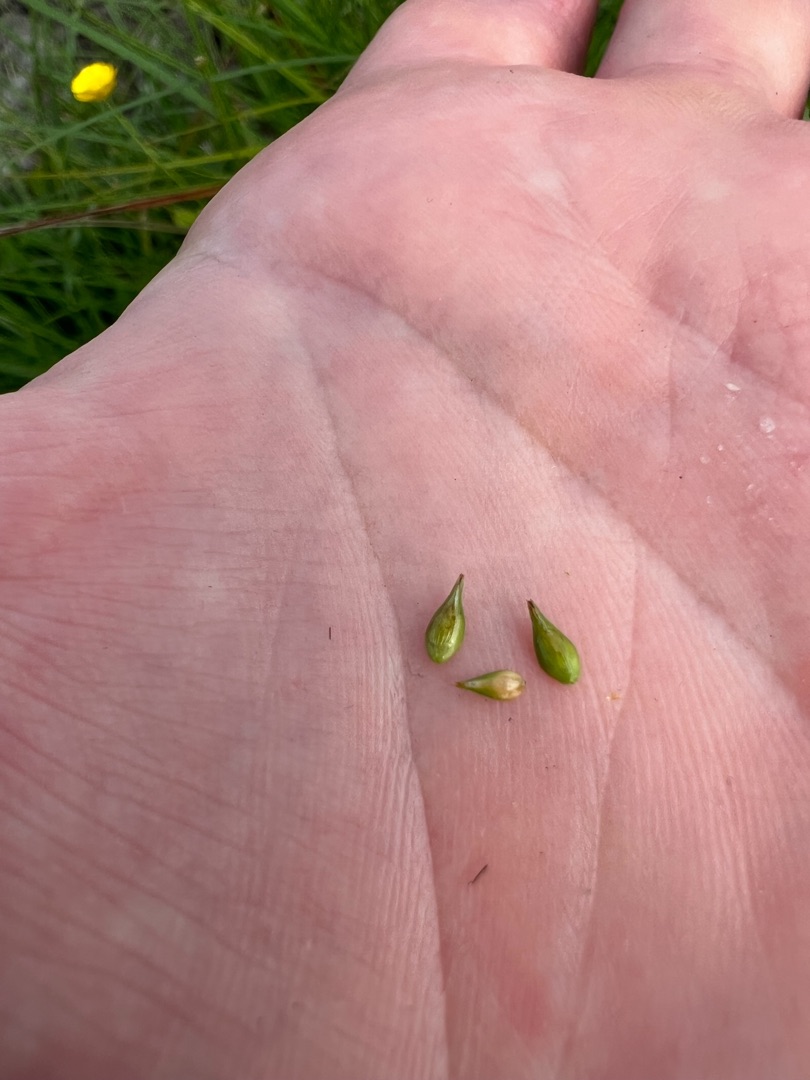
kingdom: Plantae
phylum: Tracheophyta
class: Liliopsida
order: Poales
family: Cyperaceae
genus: Carex
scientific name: Carex leersii
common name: Mellembrudt star (underart)
